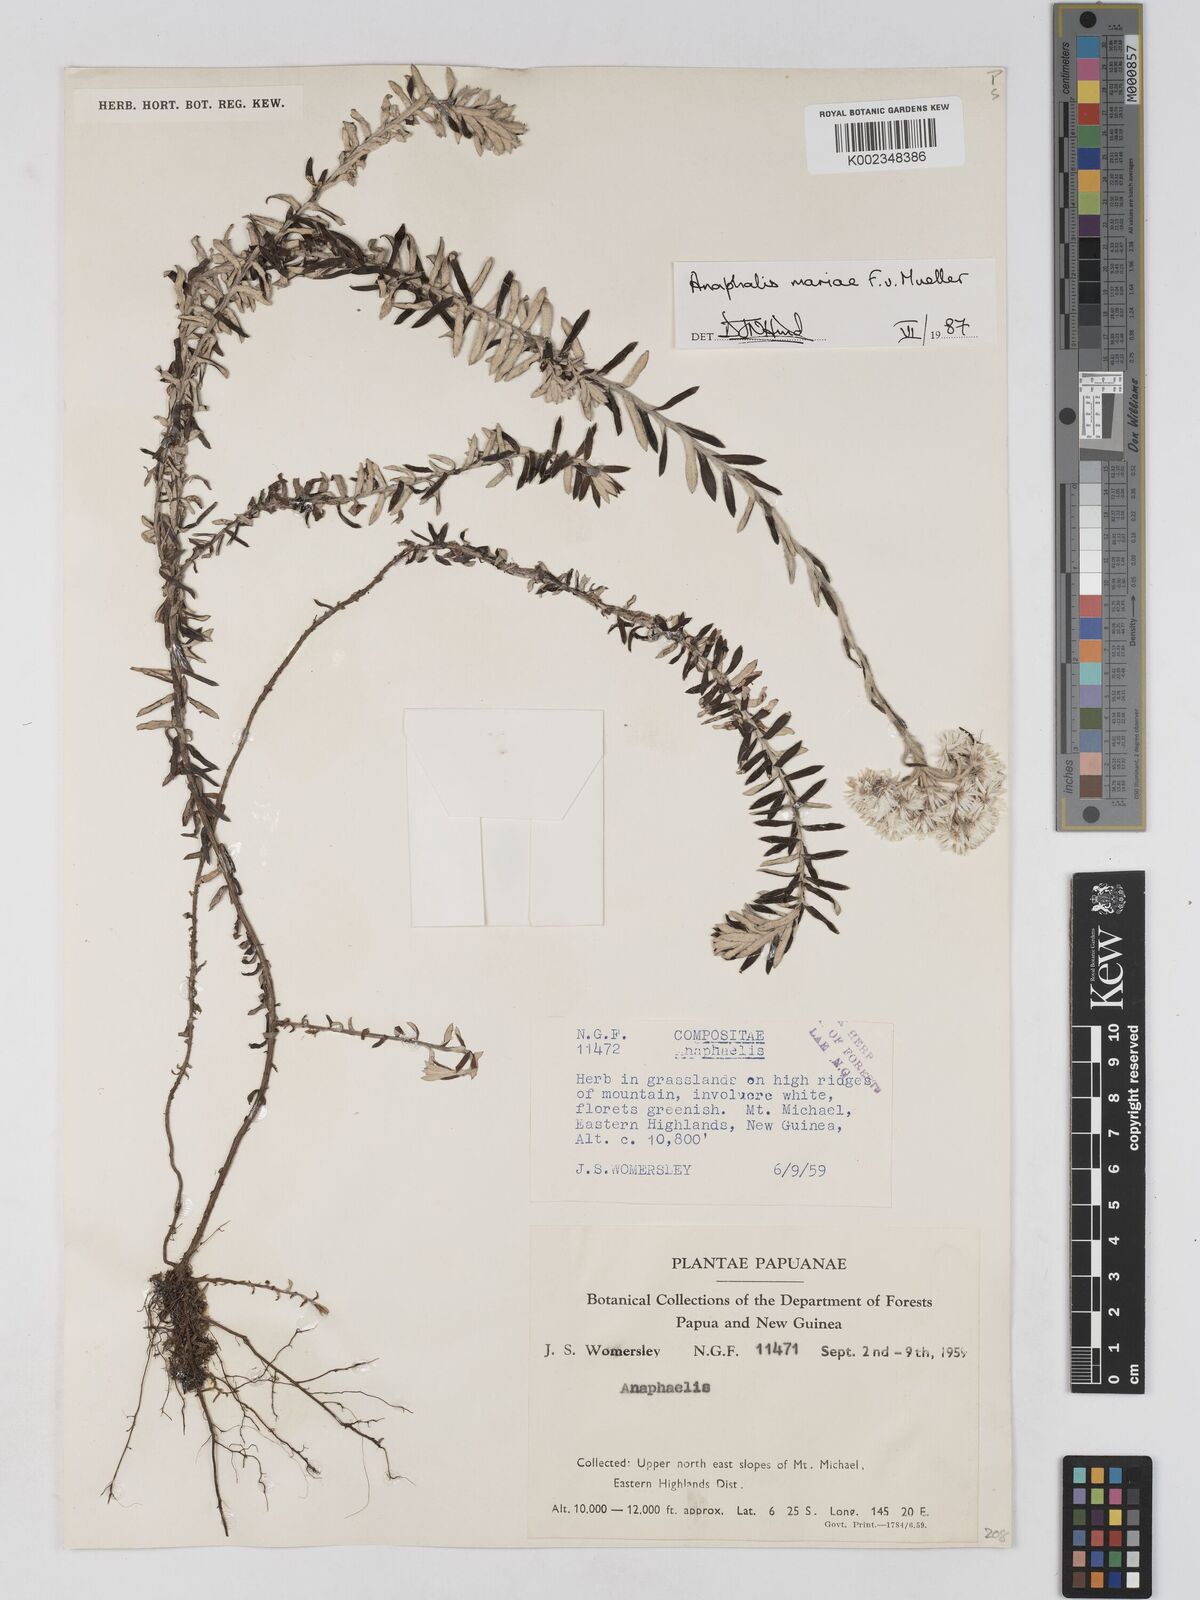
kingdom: Plantae
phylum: Tracheophyta
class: Magnoliopsida
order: Asterales
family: Asteraceae
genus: Anaphalioides
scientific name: Anaphalioides mariae
